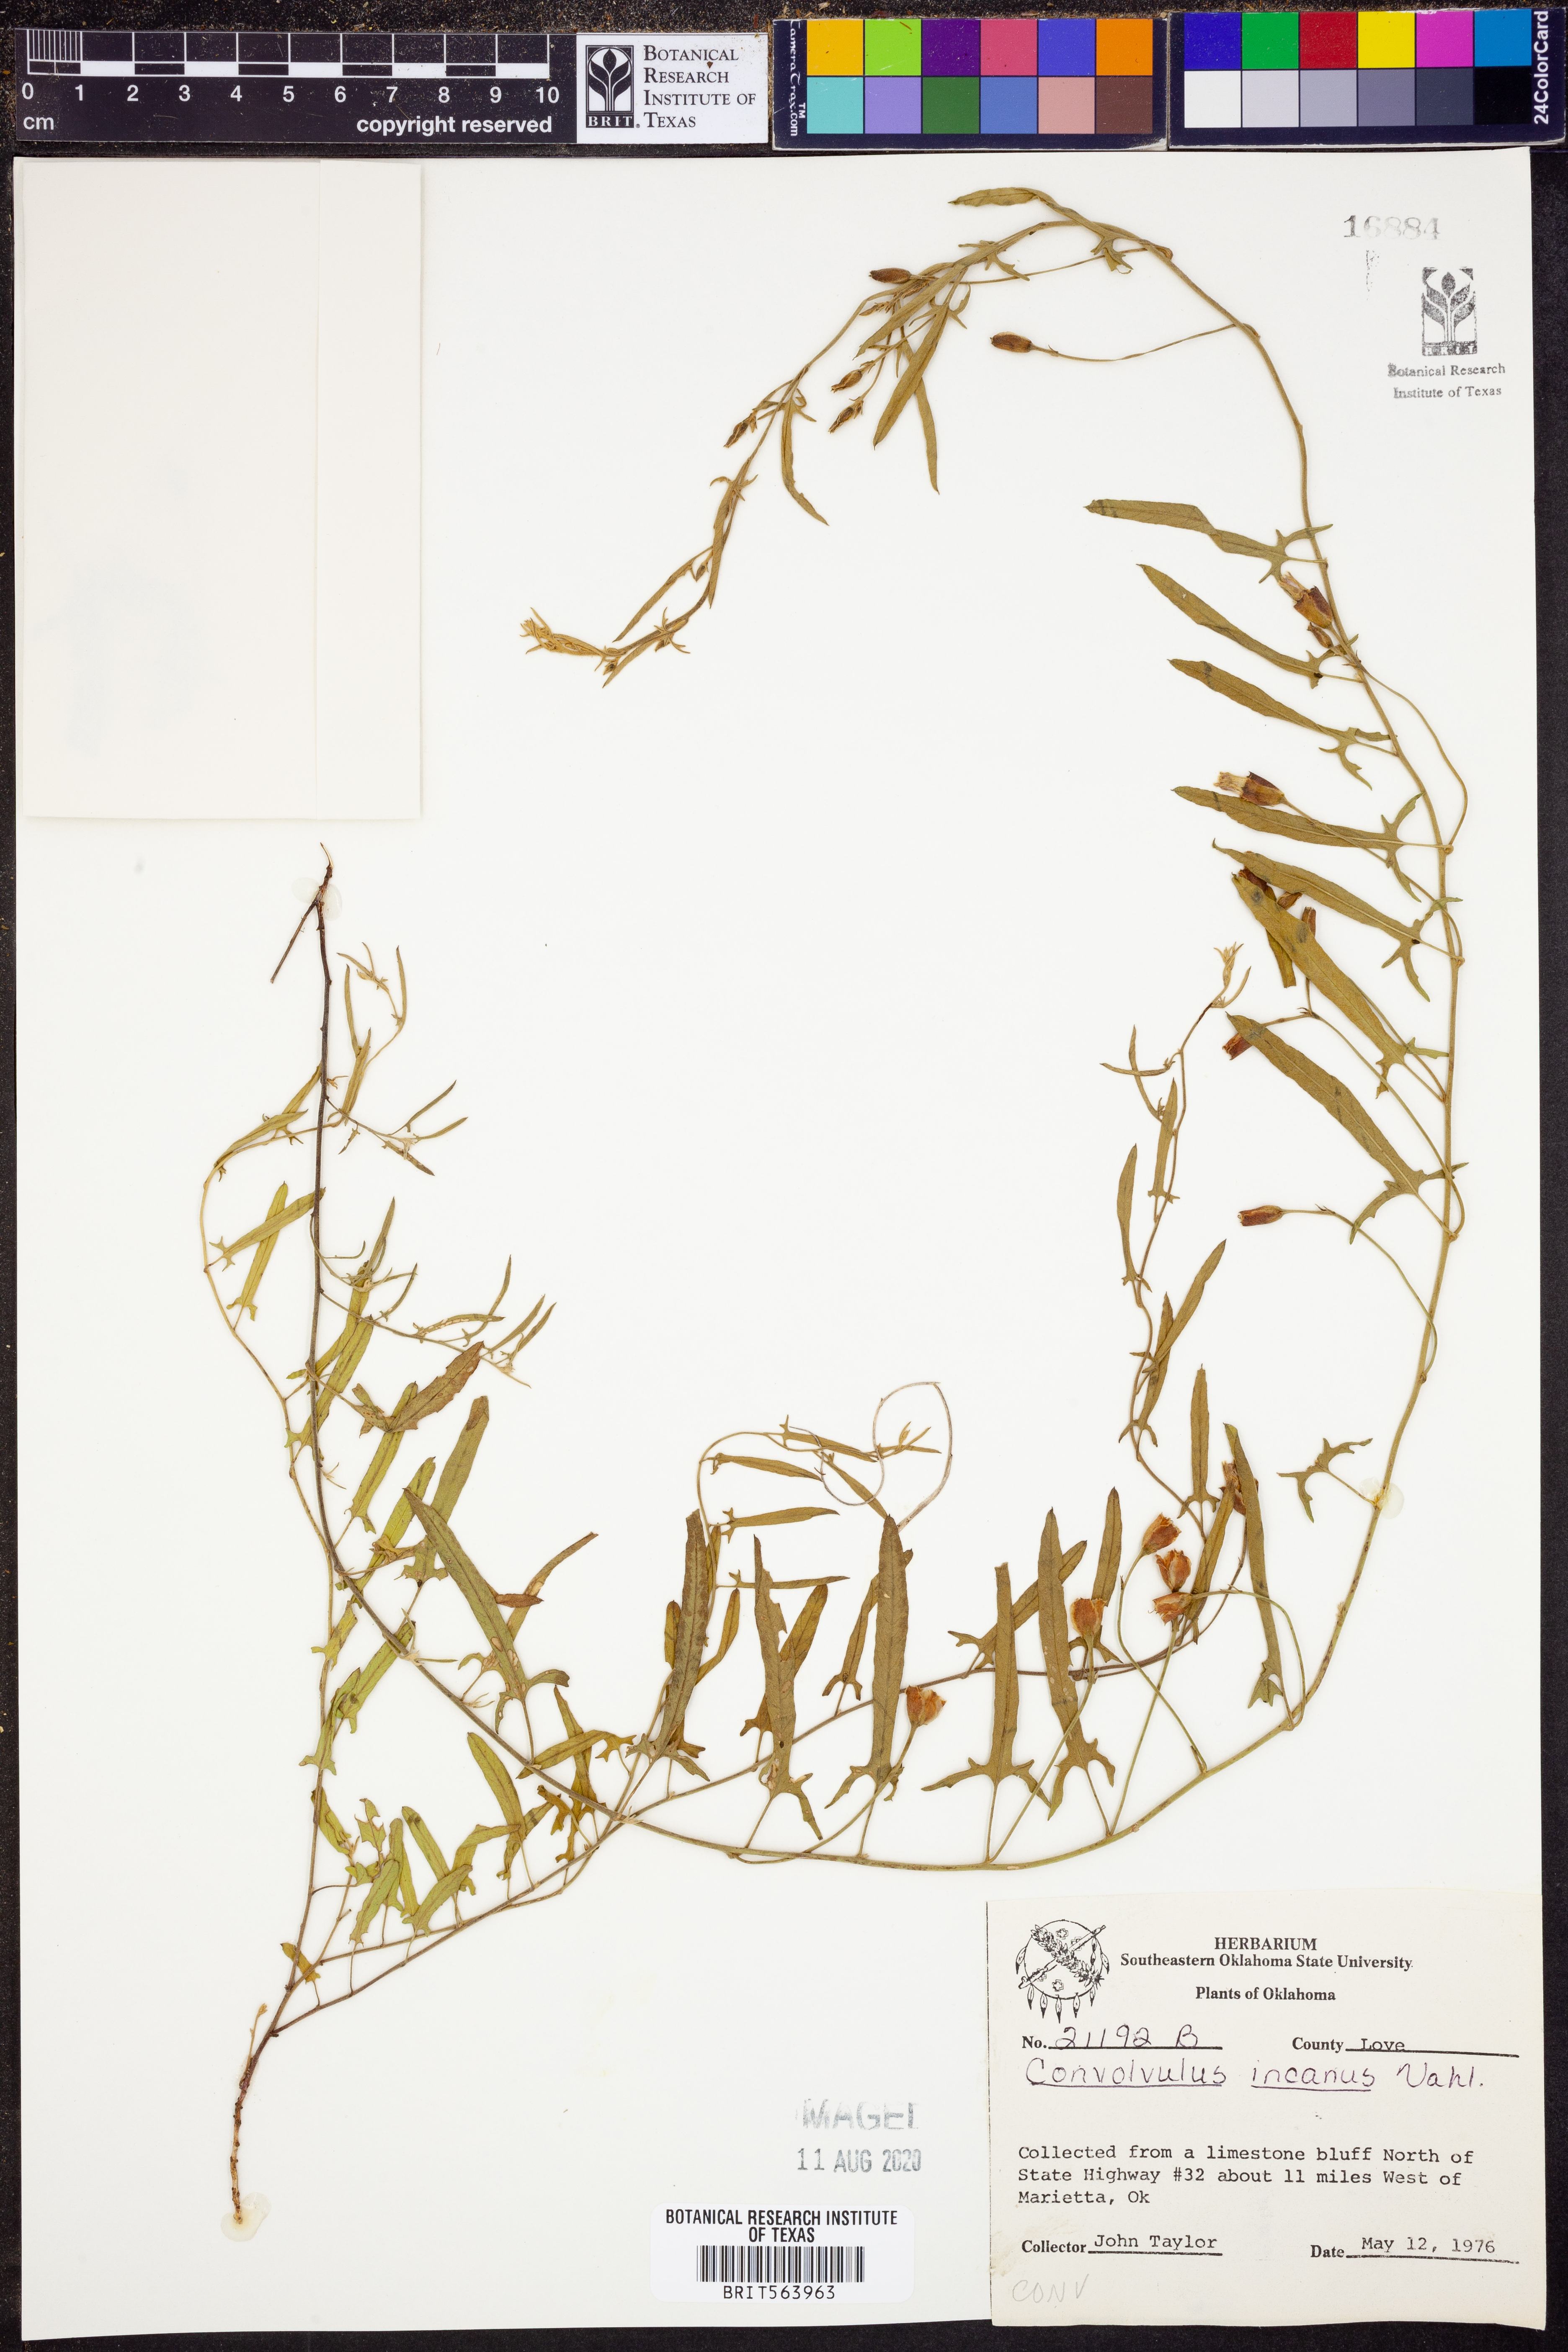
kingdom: Plantae
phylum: Tracheophyta
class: Magnoliopsida
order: Solanales
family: Convolvulaceae
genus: Convolvulus
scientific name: Convolvulus hermanniae
